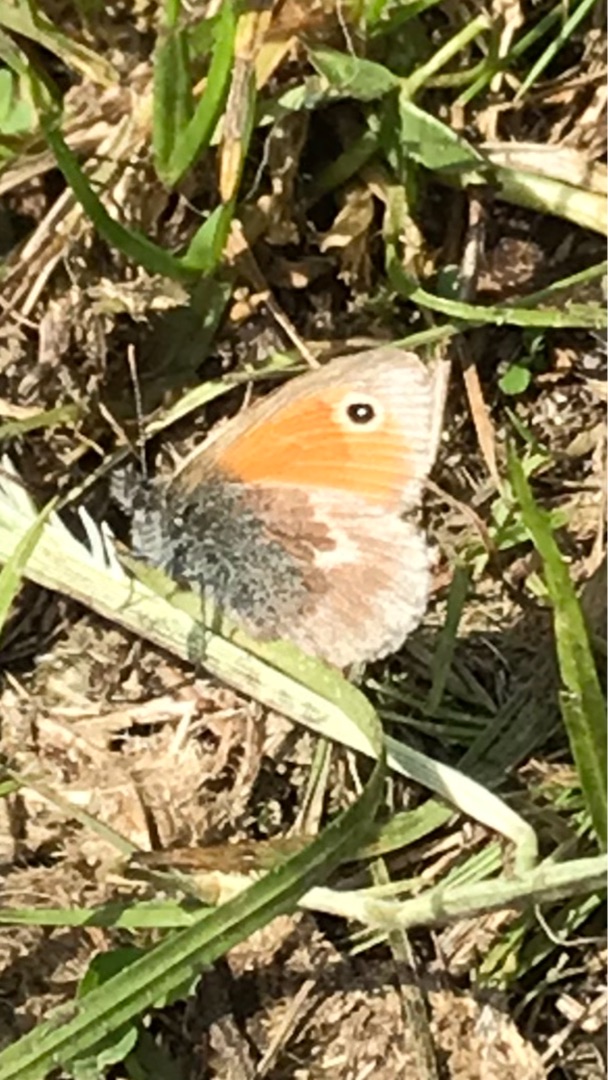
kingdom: Animalia
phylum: Arthropoda
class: Insecta
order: Lepidoptera
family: Nymphalidae
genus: Coenonympha
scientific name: Coenonympha pamphilus
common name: Okkergul randøje
